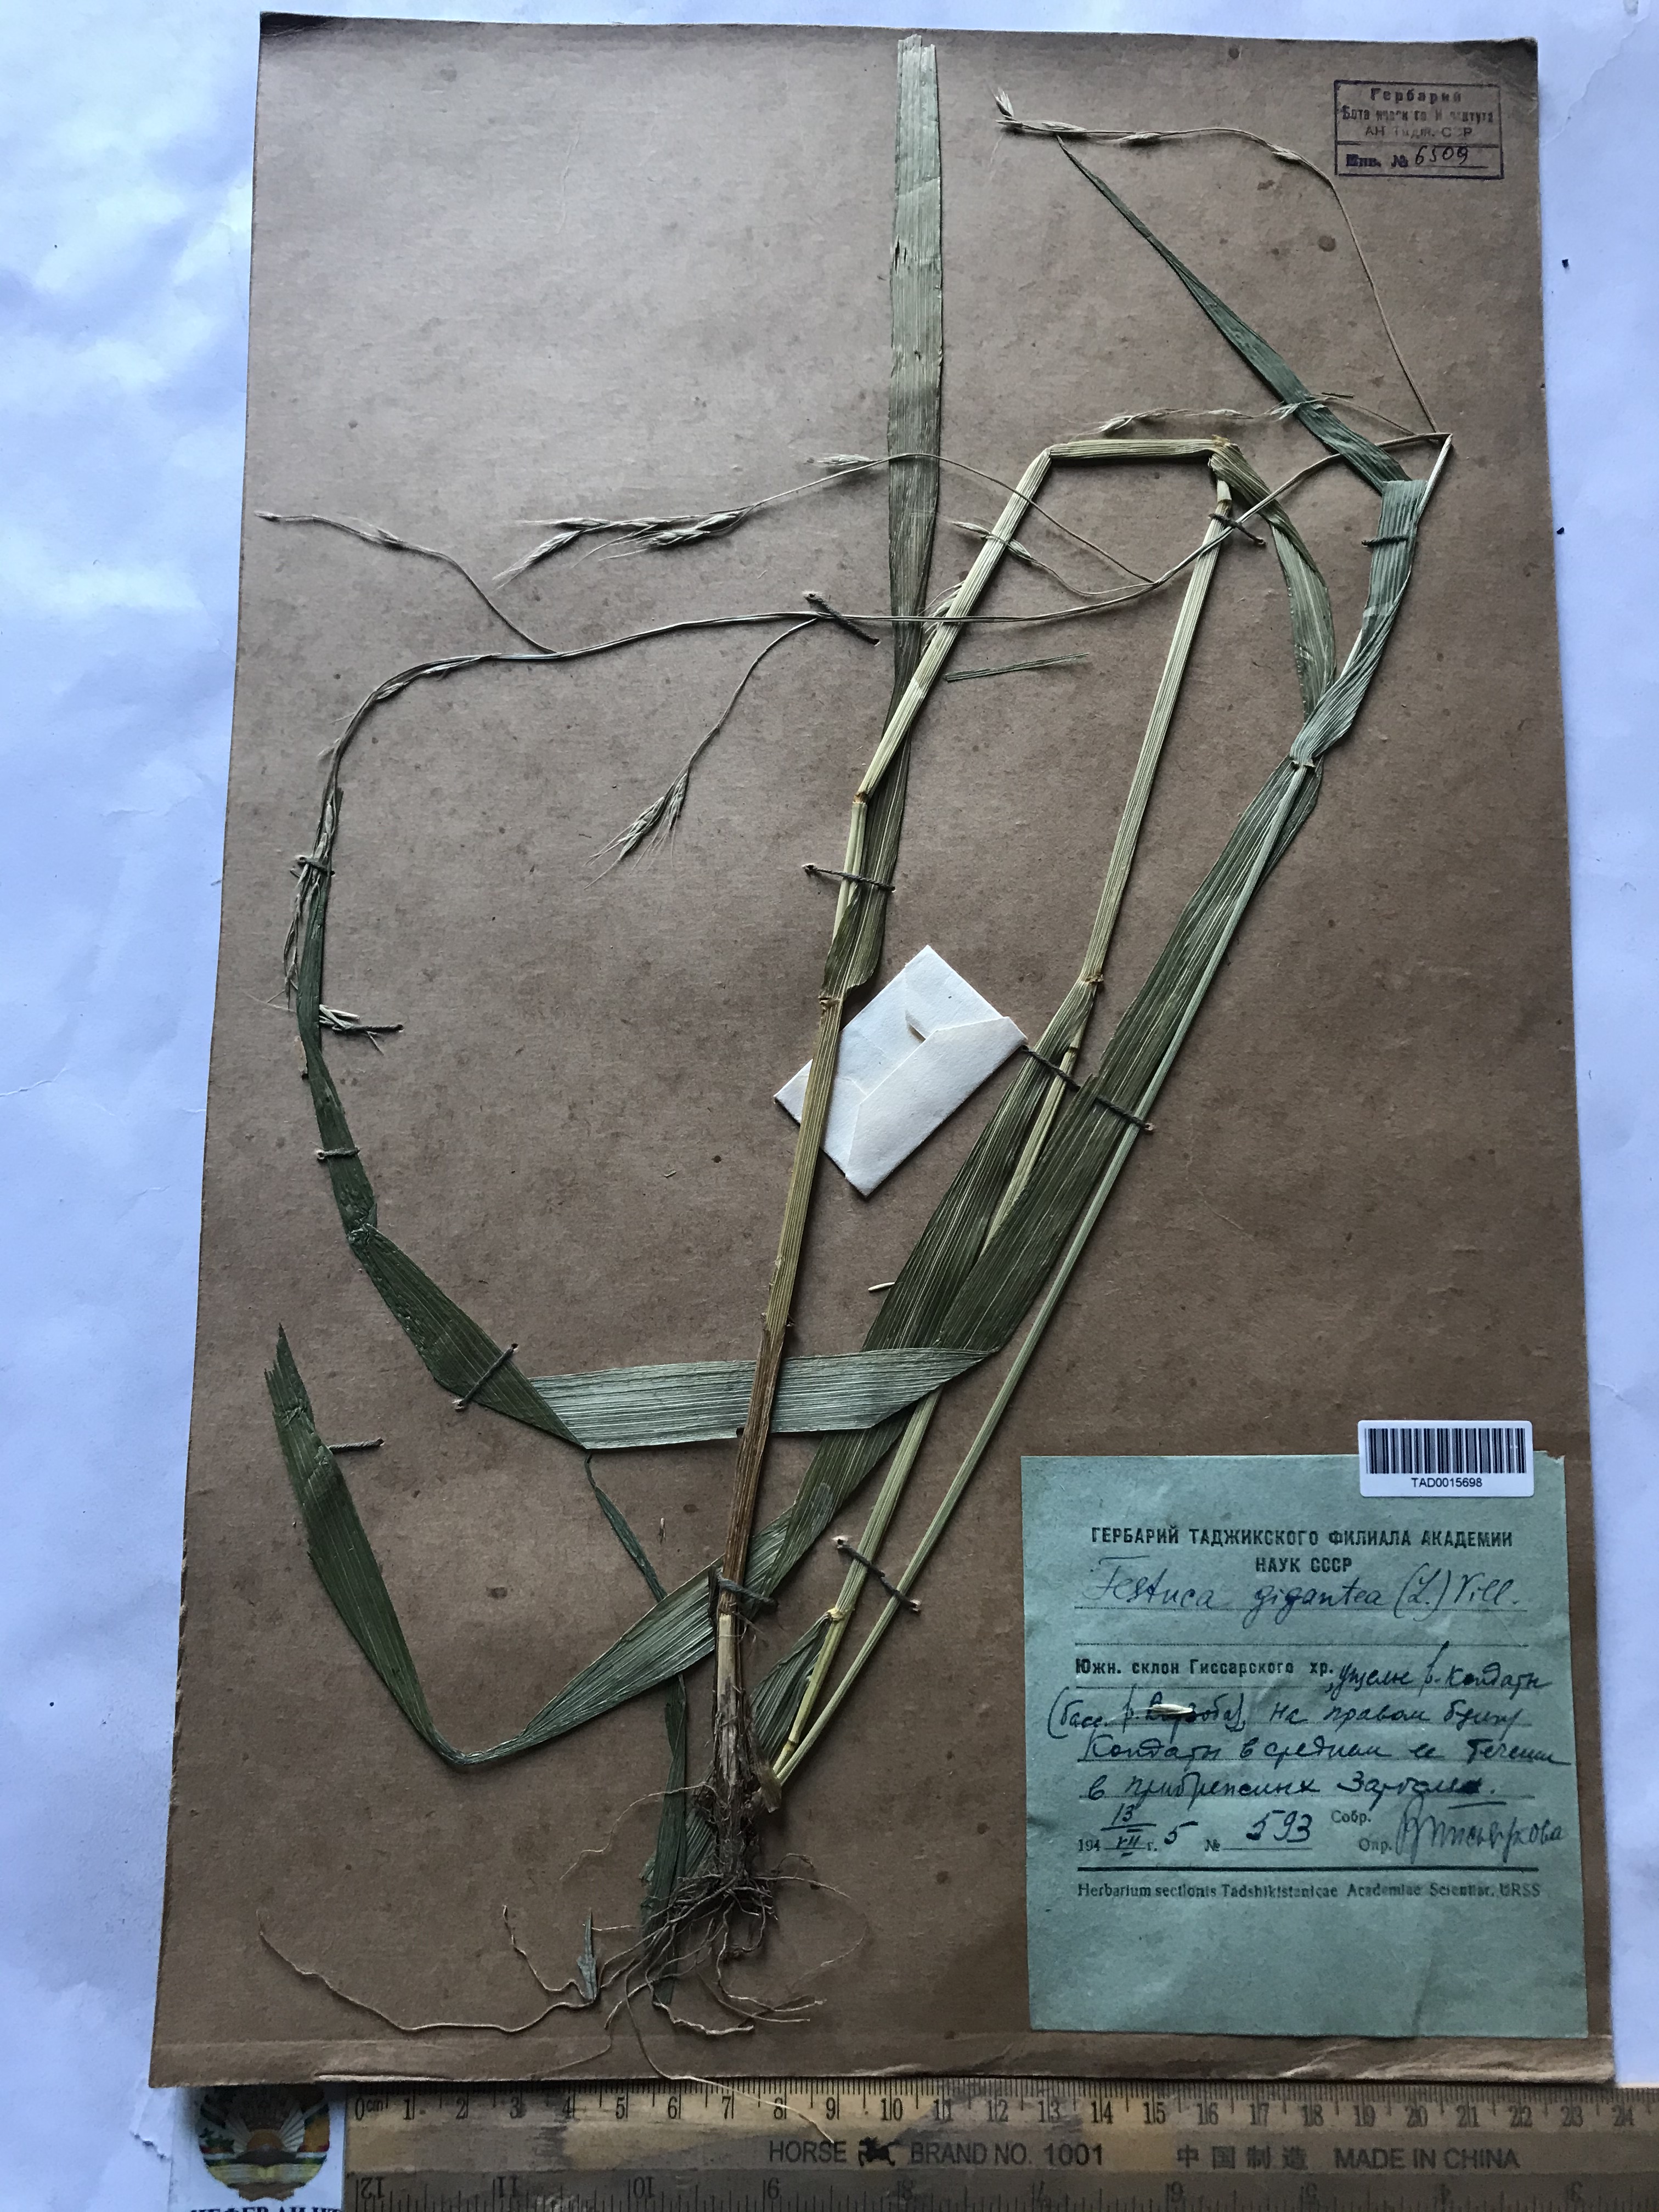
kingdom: Plantae
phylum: Tracheophyta
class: Liliopsida
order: Poales
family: Poaceae
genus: Lolium
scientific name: Lolium giganteum
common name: Giant fescue
